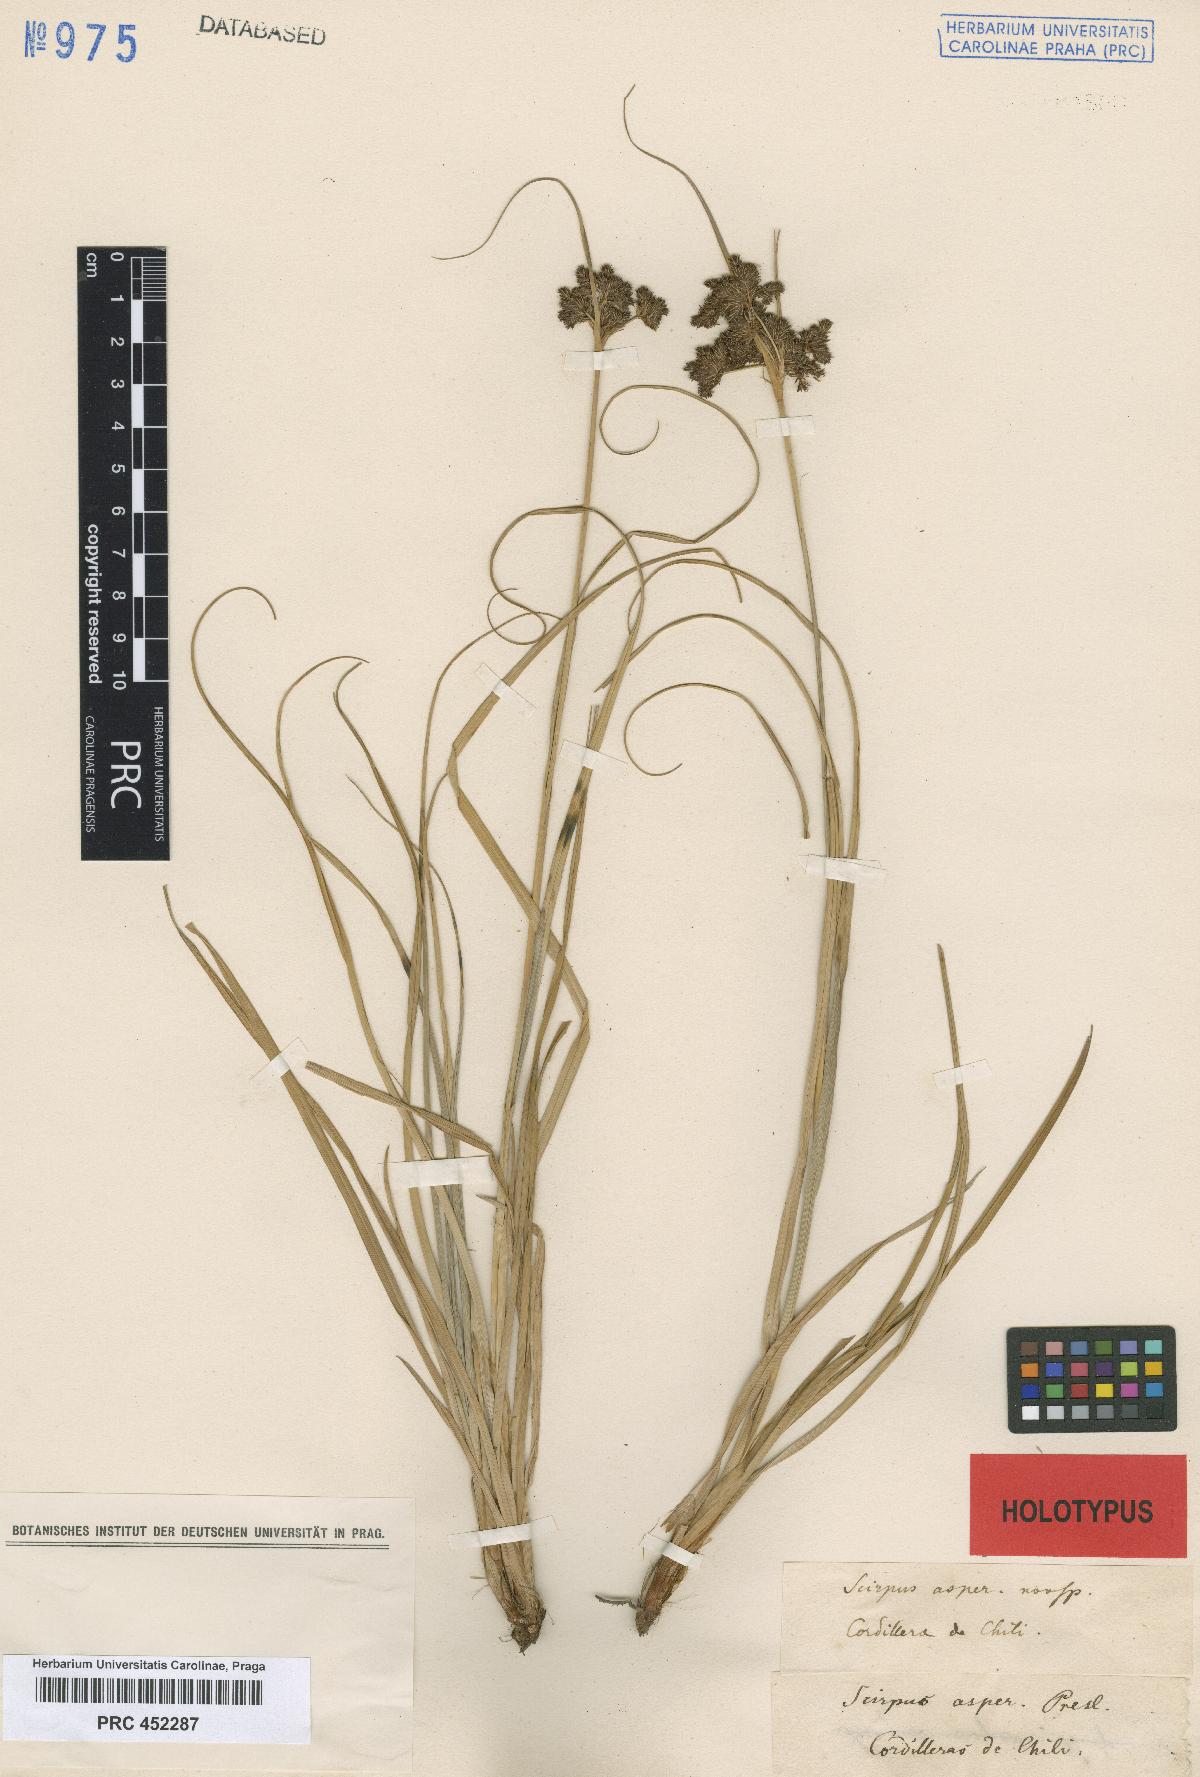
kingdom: Plantae
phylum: Tracheophyta
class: Liliopsida
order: Poales
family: Cyperaceae
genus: Rhodoscirpus
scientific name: Rhodoscirpus asper
